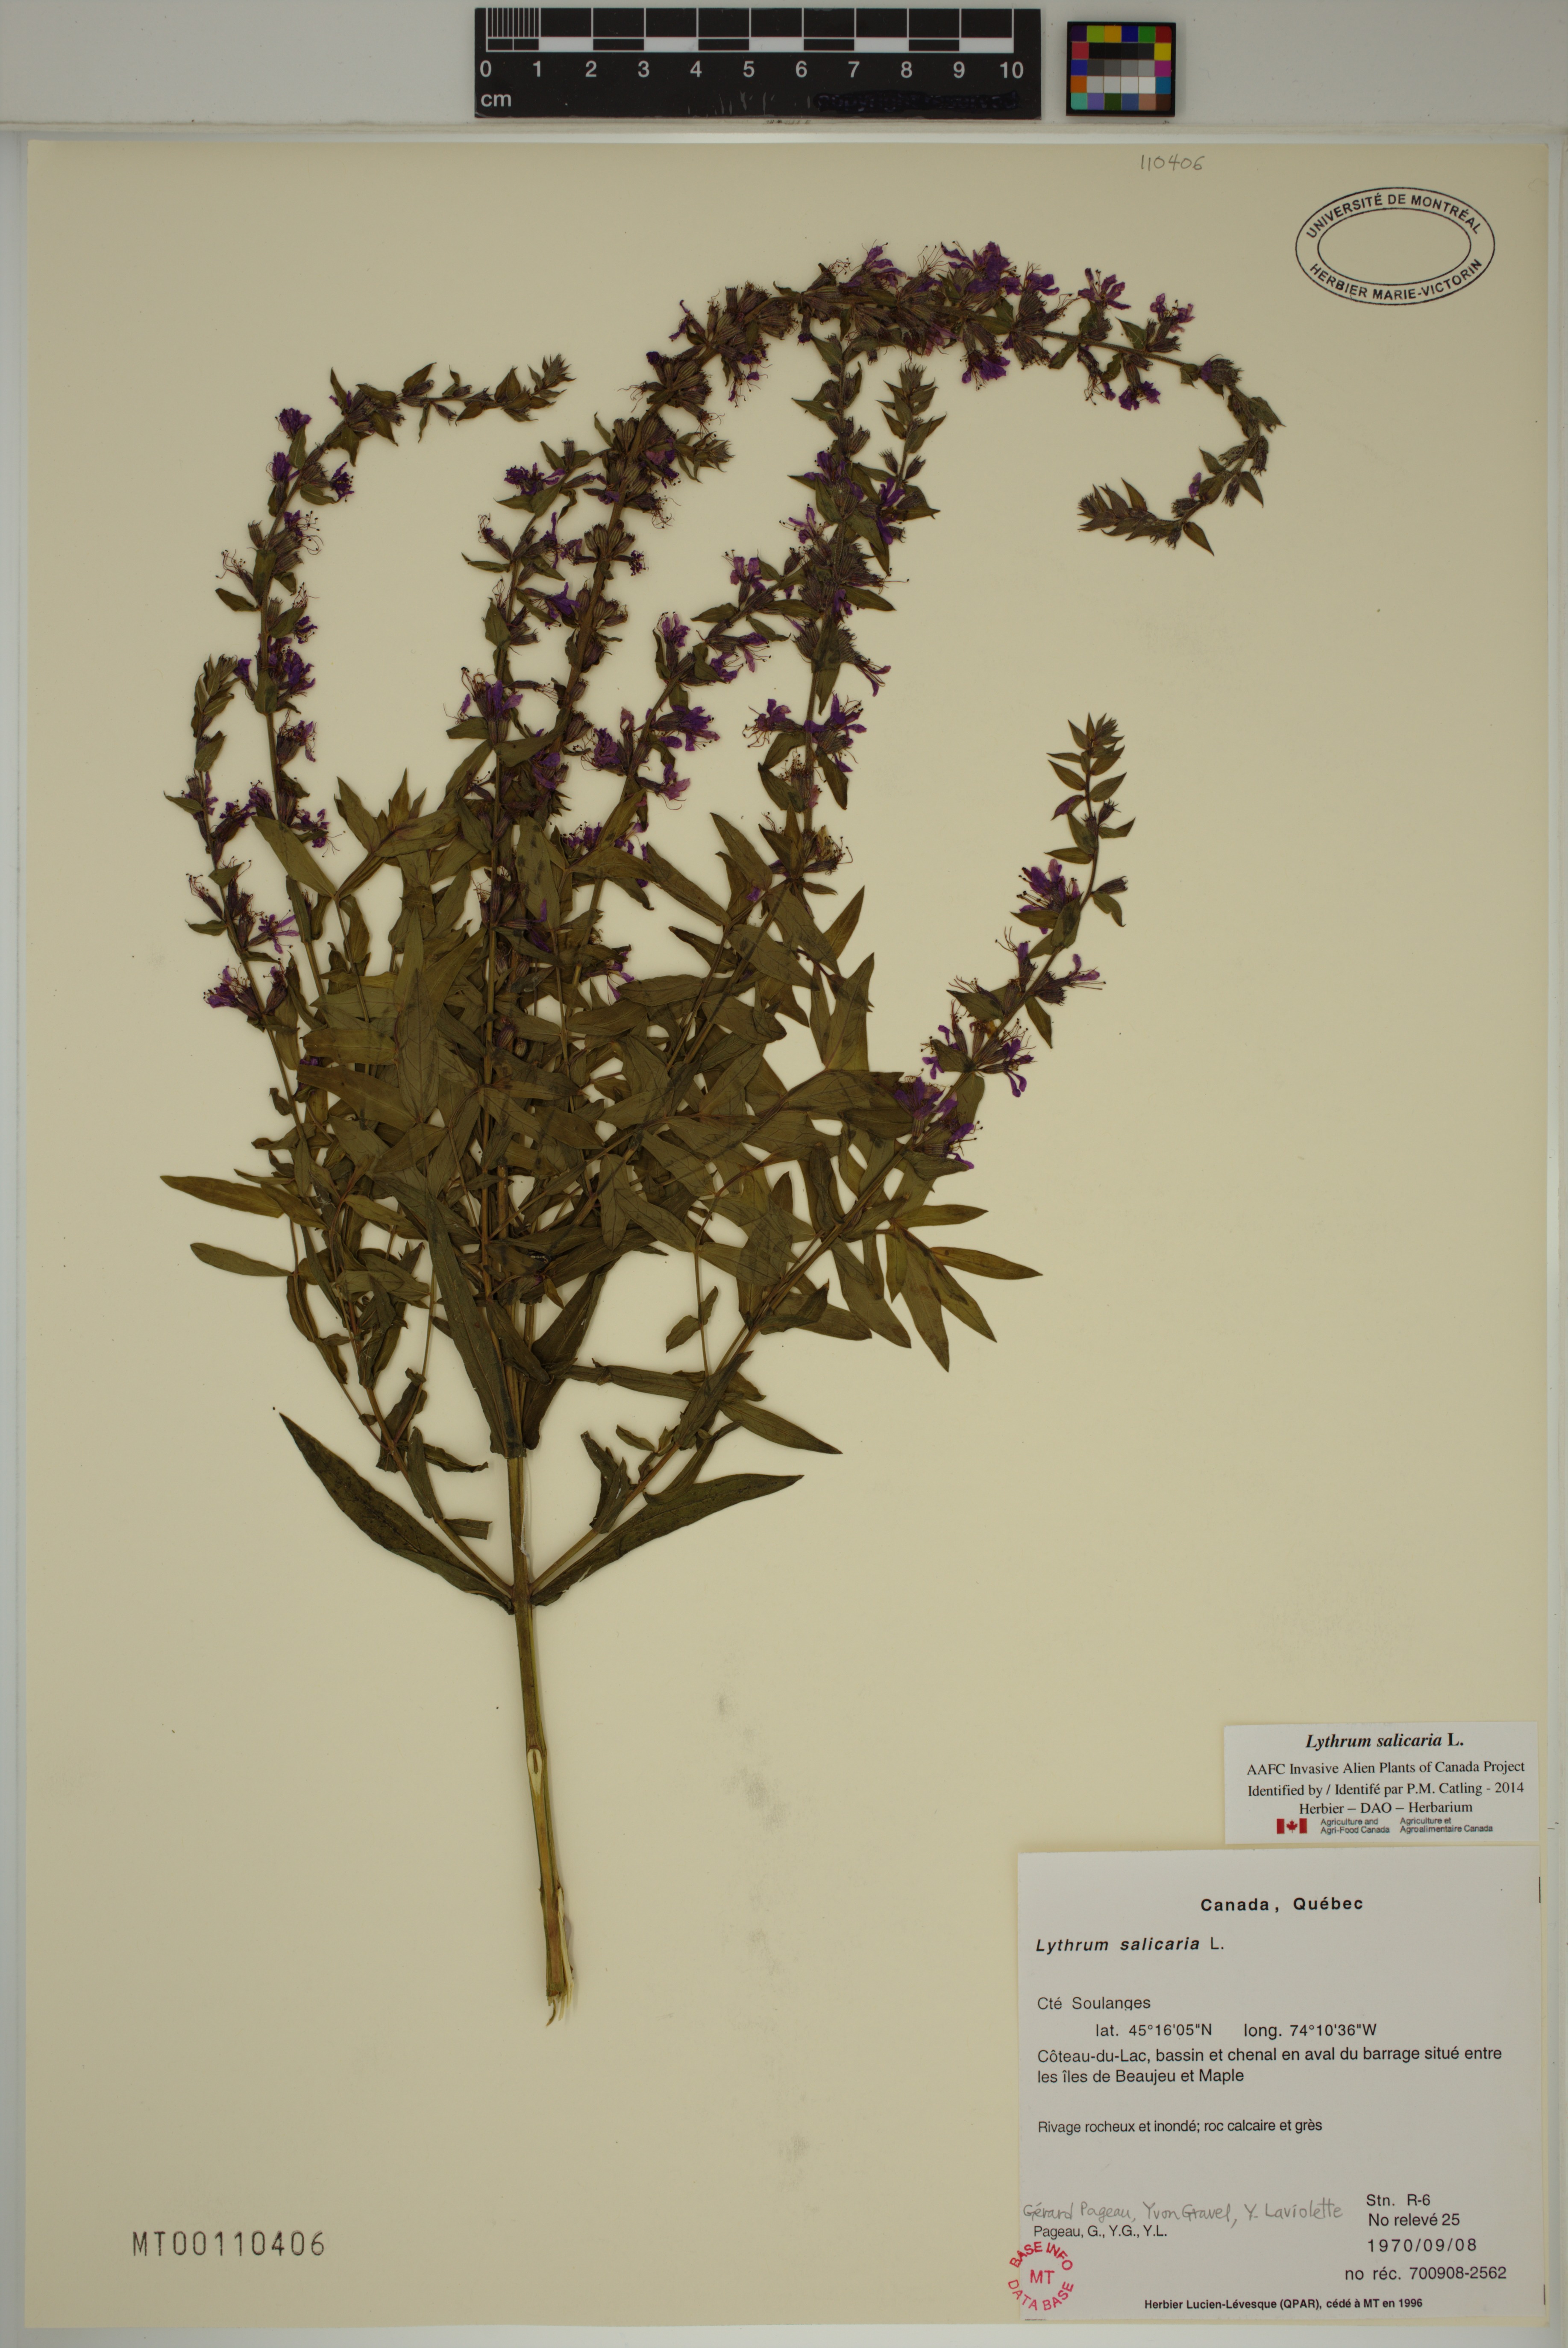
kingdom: Plantae
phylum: Tracheophyta
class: Magnoliopsida
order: Myrtales
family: Lythraceae
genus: Lythrum
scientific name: Lythrum salicaria
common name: Purple loosestrife
